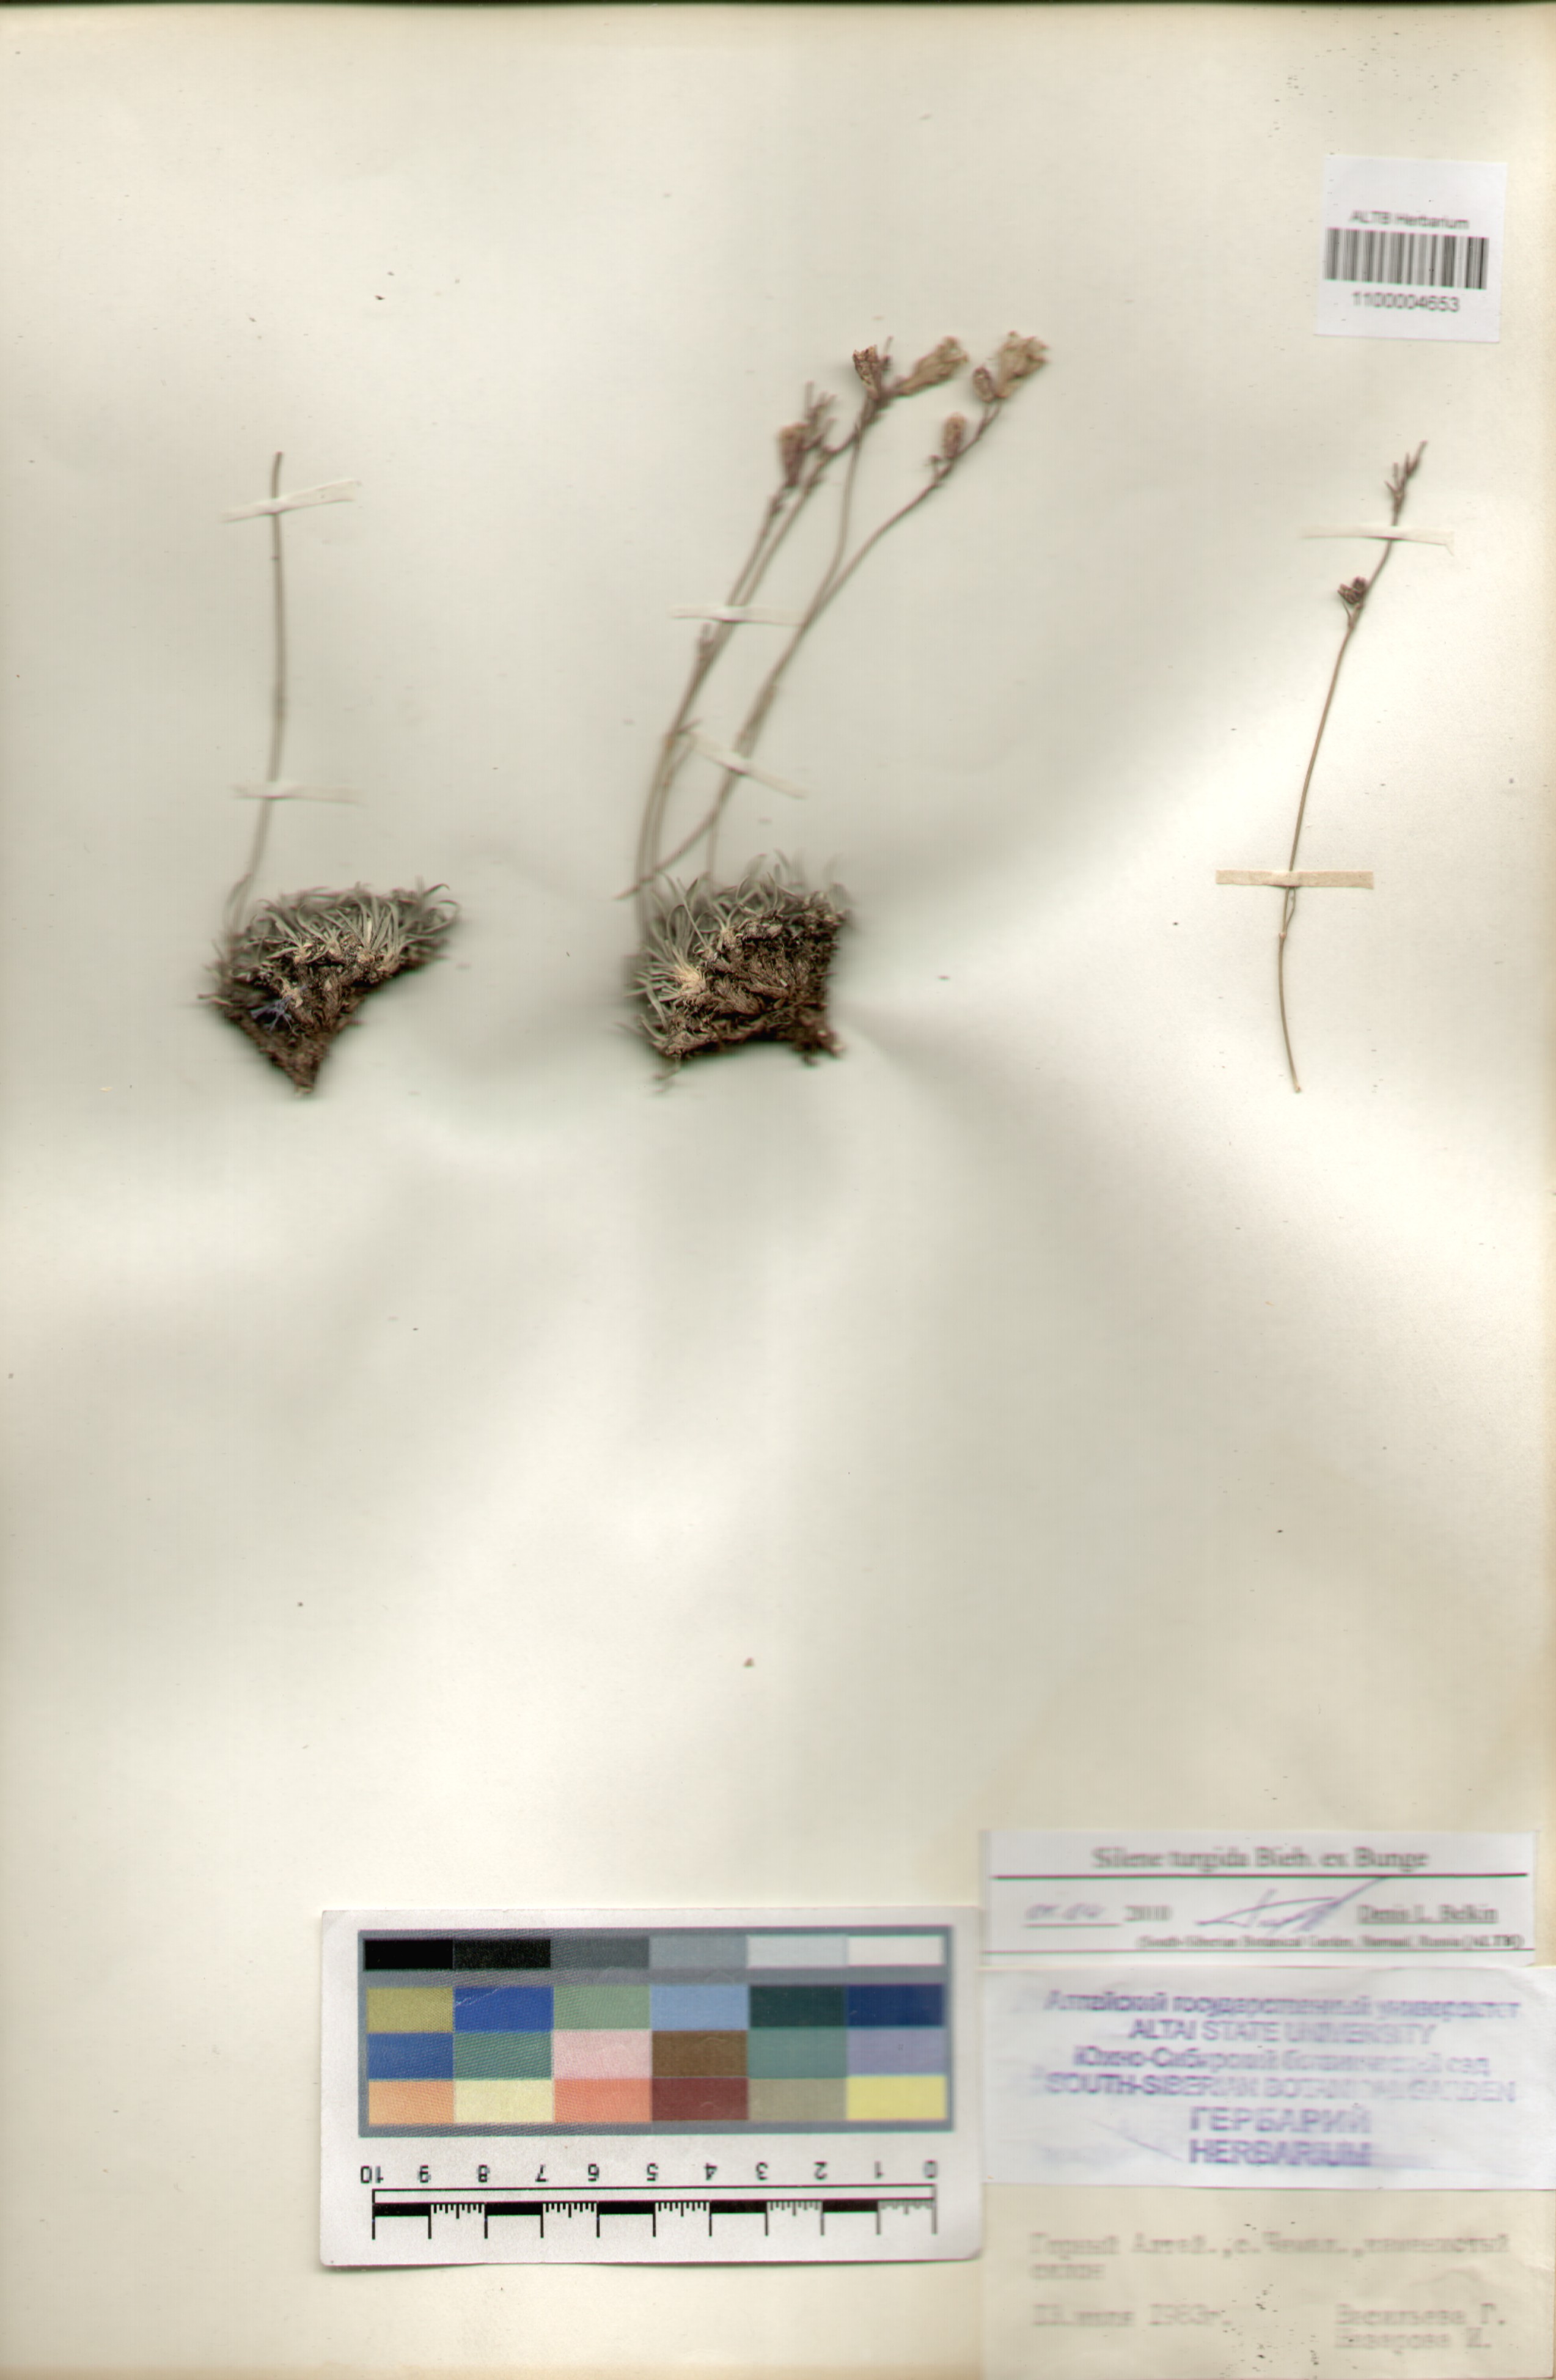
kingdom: Plantae
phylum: Tracheophyta
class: Magnoliopsida
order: Caryophyllales
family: Caryophyllaceae
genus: Silene
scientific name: Silene turgida
